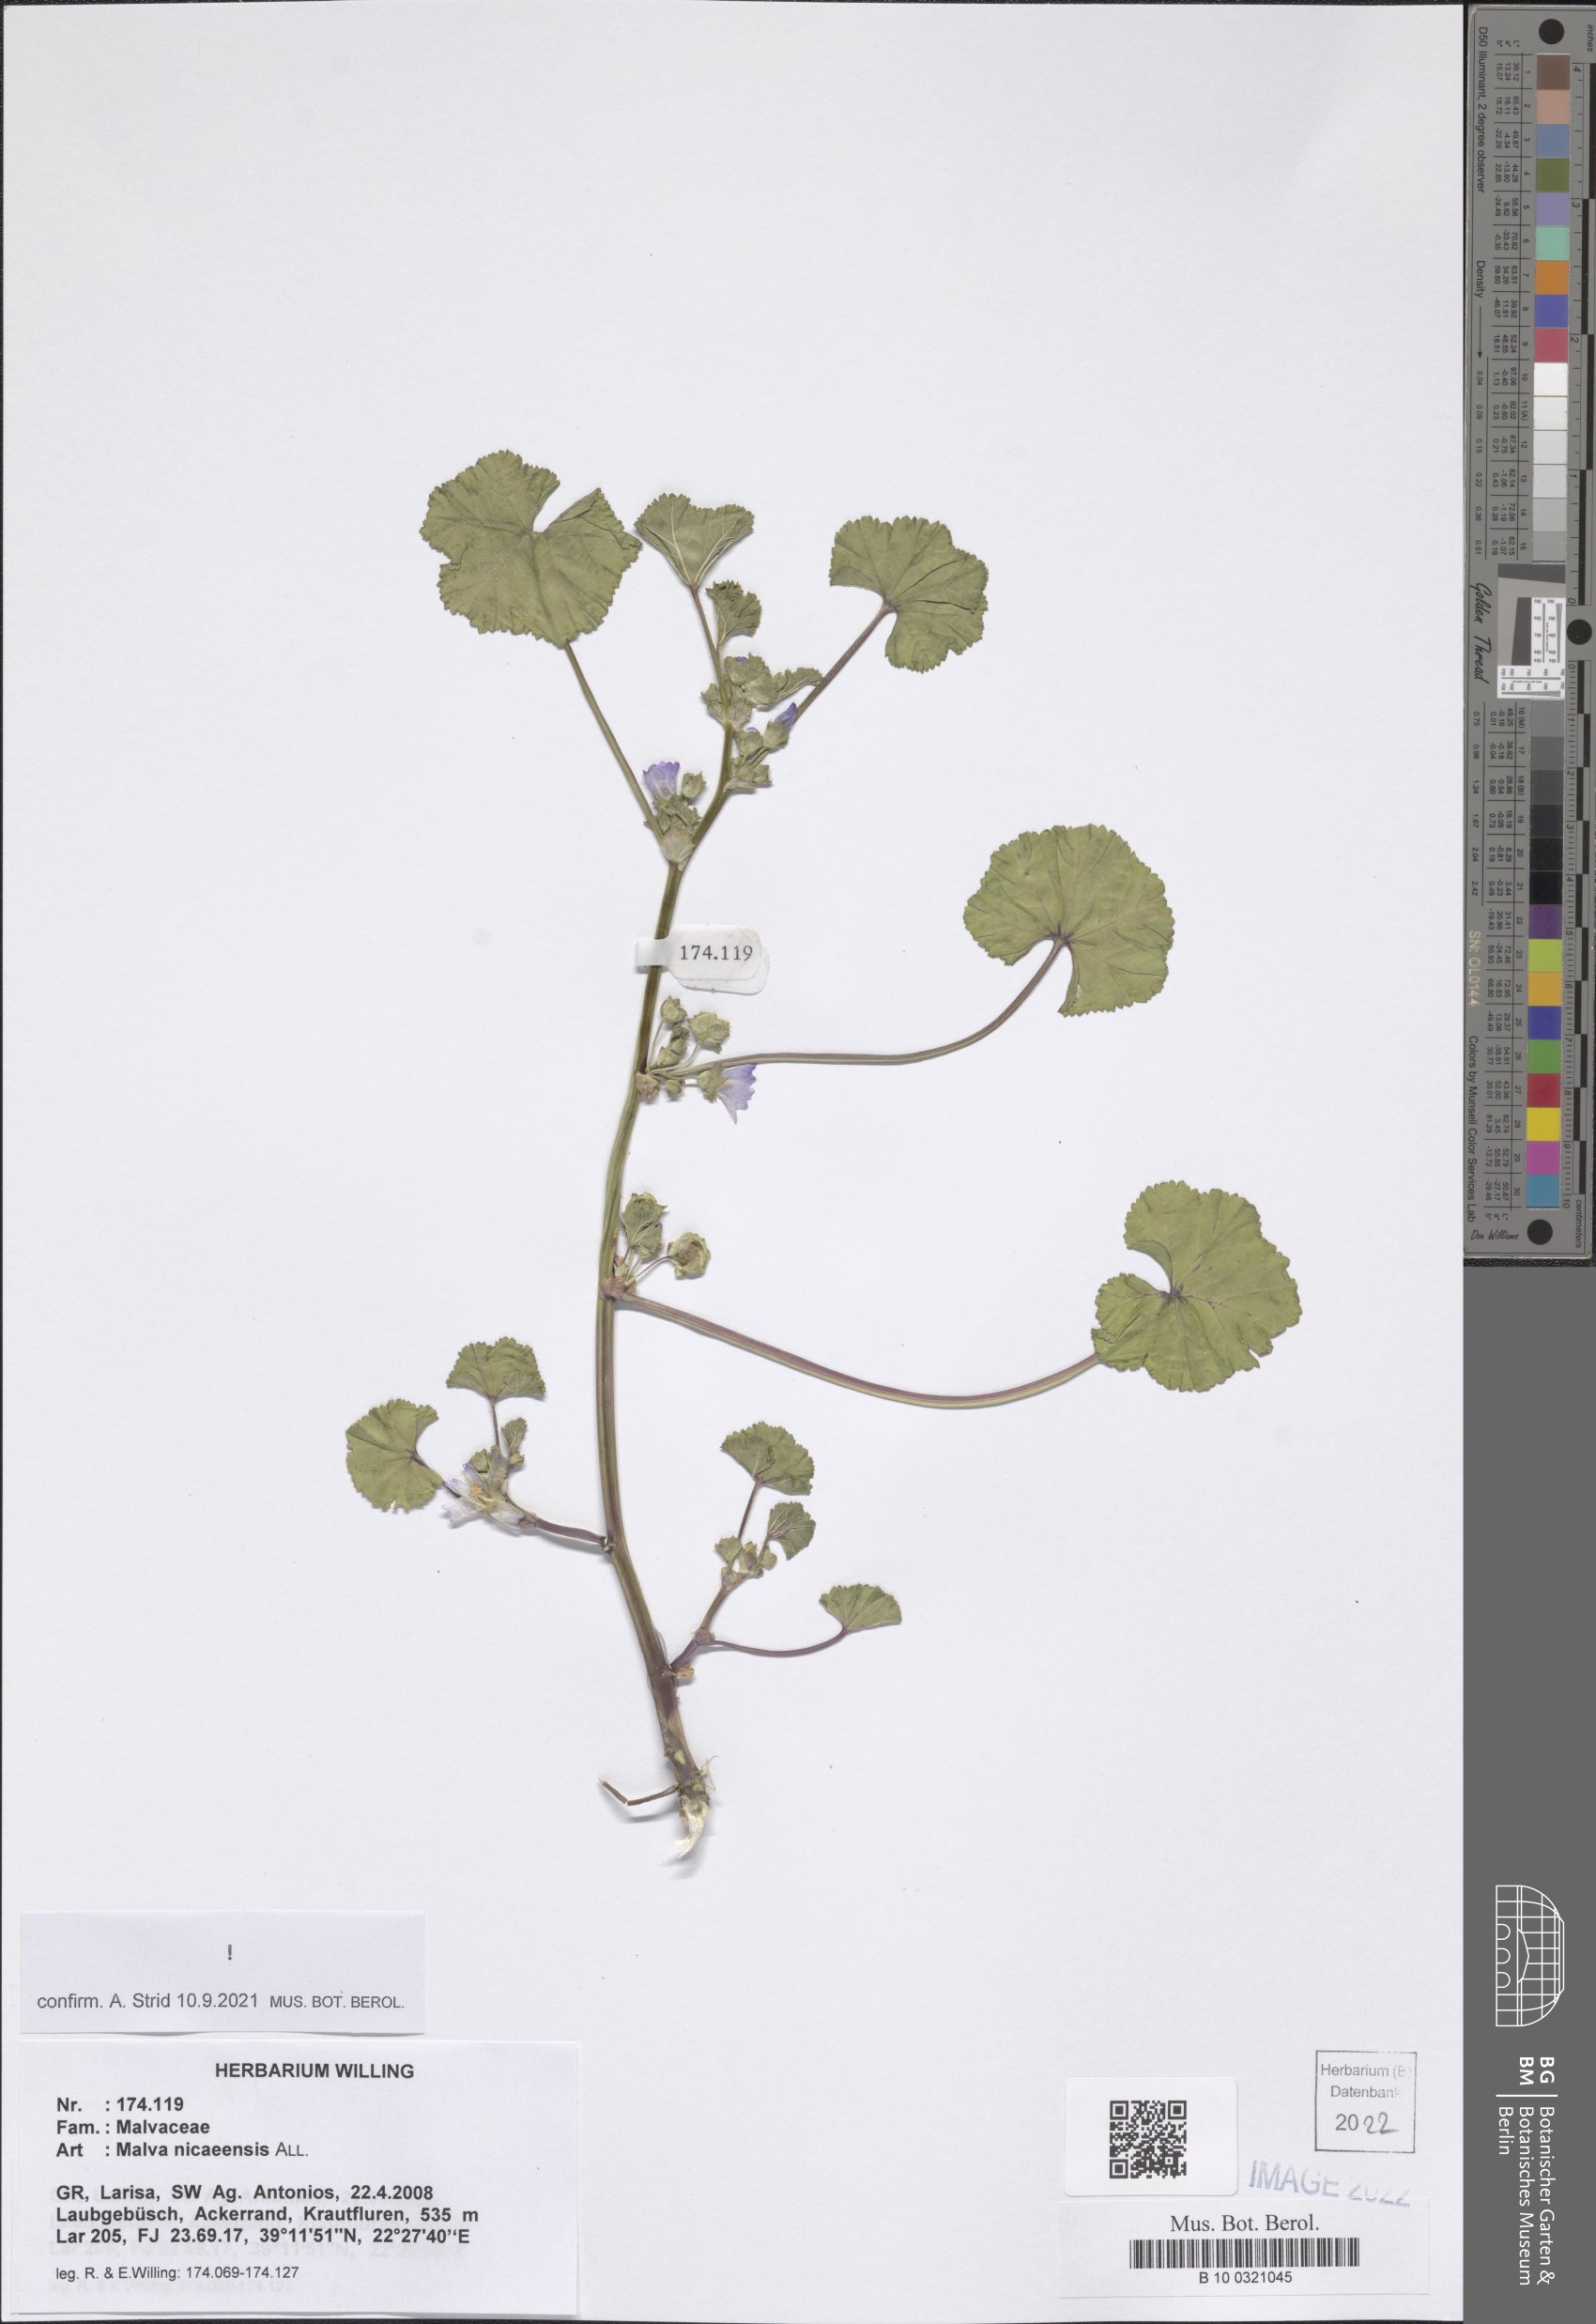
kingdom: Plantae
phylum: Tracheophyta
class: Magnoliopsida
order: Malvales
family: Malvaceae
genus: Malva
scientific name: Malva nicaeensis
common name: French mallow
